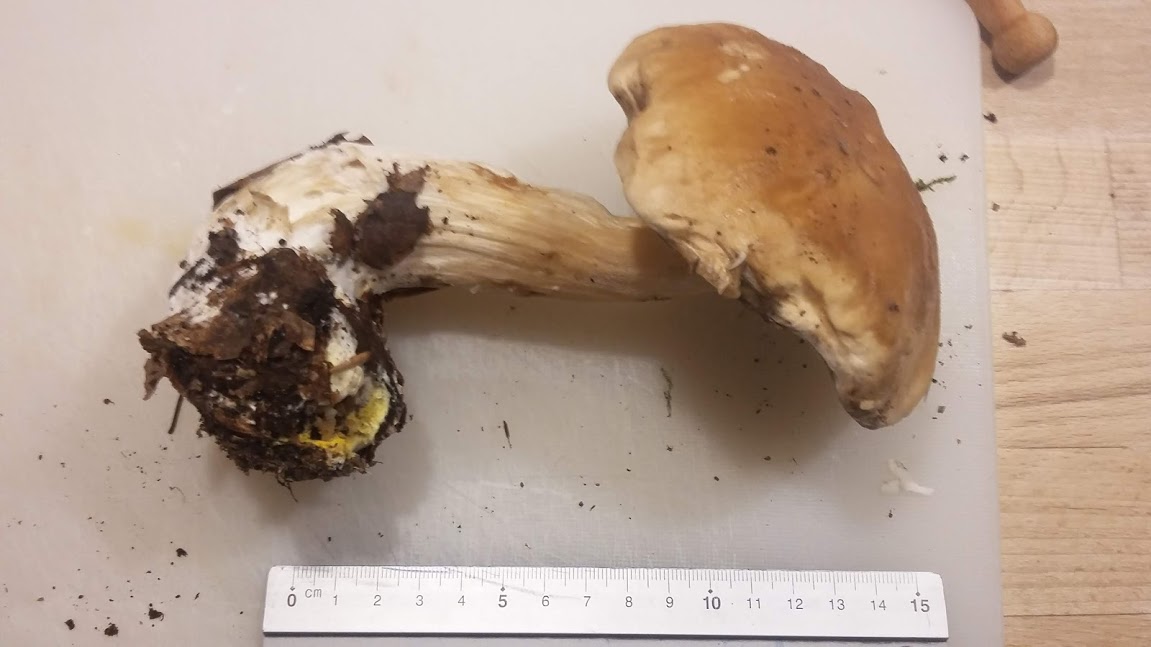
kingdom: Fungi
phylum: Basidiomycota
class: Agaricomycetes
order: Boletales
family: Boletaceae
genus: Boletus
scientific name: Boletus edulis
